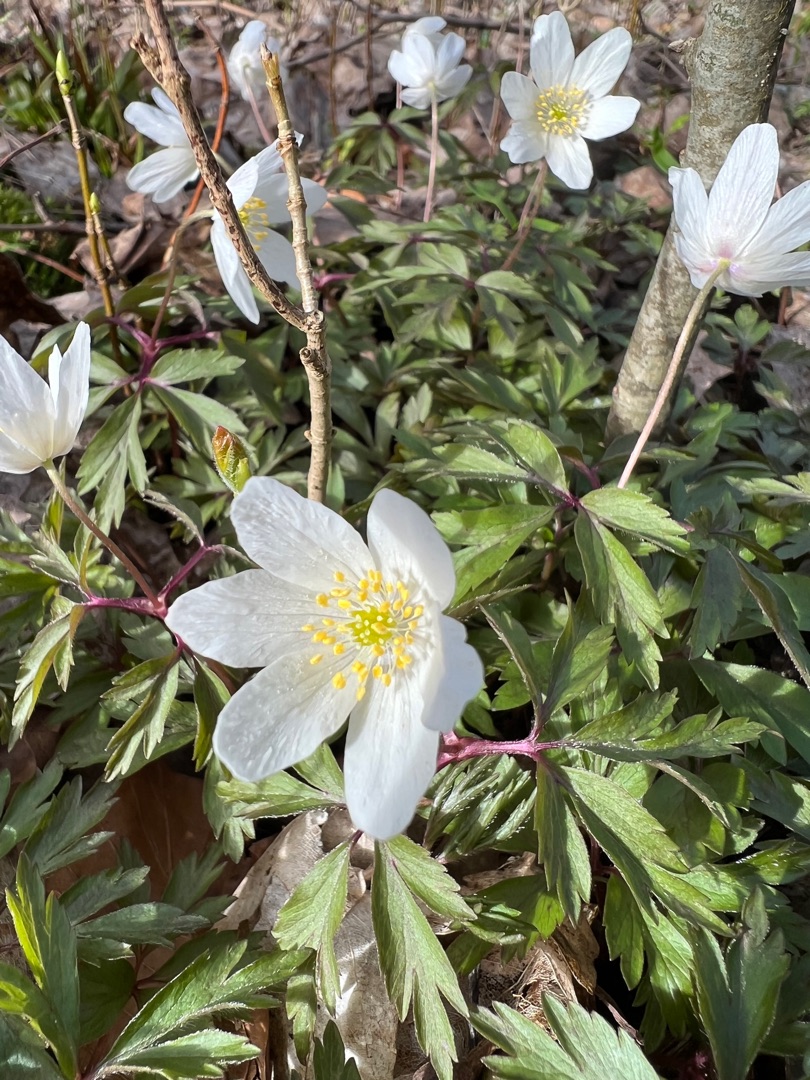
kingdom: Plantae
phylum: Tracheophyta
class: Magnoliopsida
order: Ranunculales
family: Ranunculaceae
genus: Anemone
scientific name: Anemone nemorosa
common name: Hvid anemone
